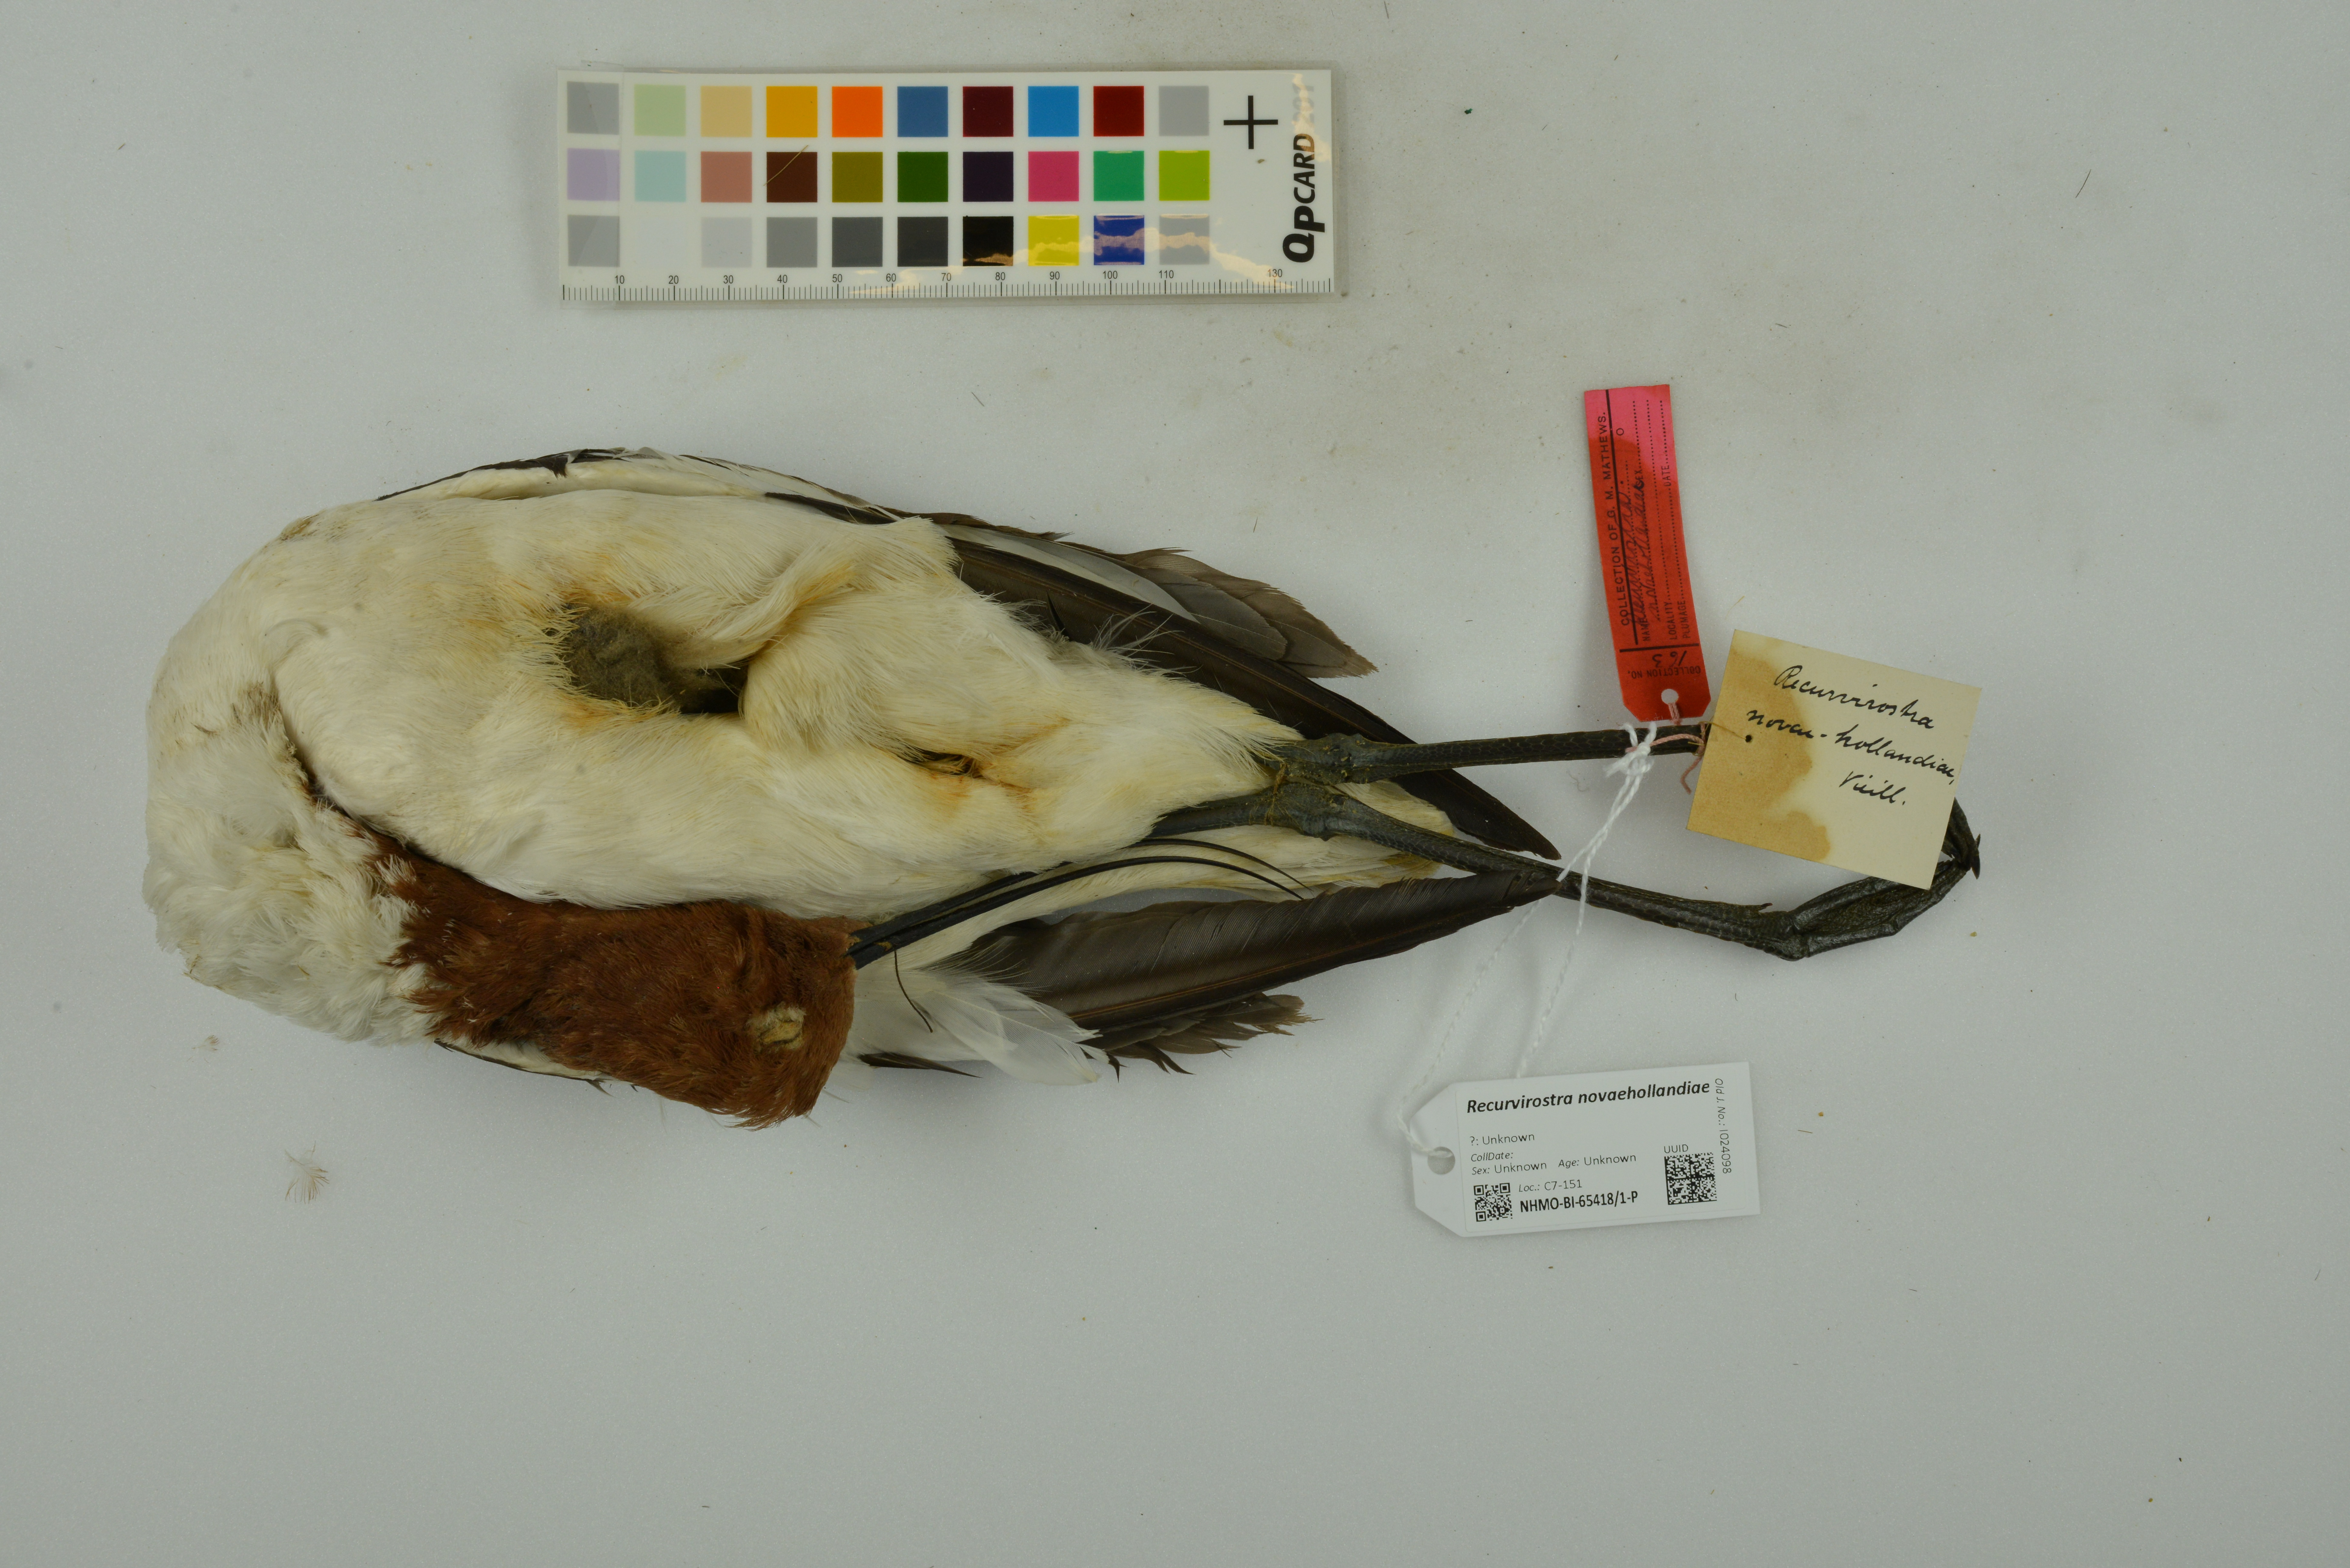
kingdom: Animalia
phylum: Chordata
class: Aves
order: Charadriiformes
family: Recurvirostridae
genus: Recurvirostra
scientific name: Recurvirostra novaehollandiae
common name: Red-necked avocet
